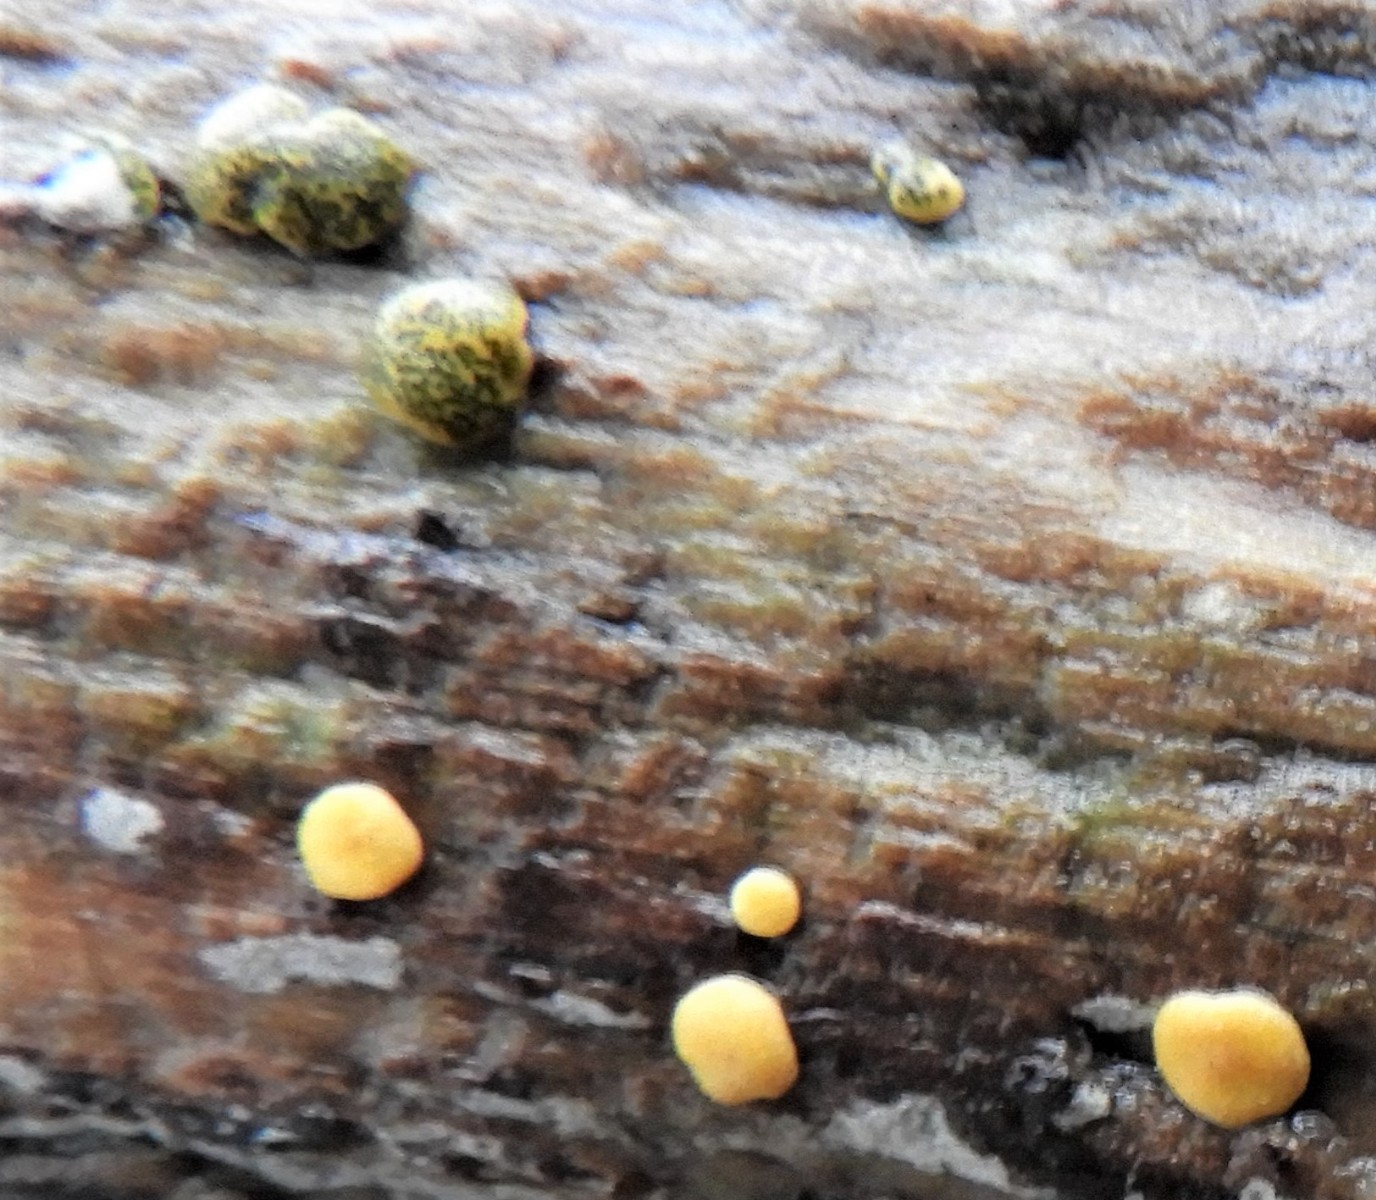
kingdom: Fungi
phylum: Ascomycota
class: Sordariomycetes
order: Hypocreales
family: Hypocreaceae
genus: Trichoderma
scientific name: Trichoderma aureoviride
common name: æggegul kødkerne
